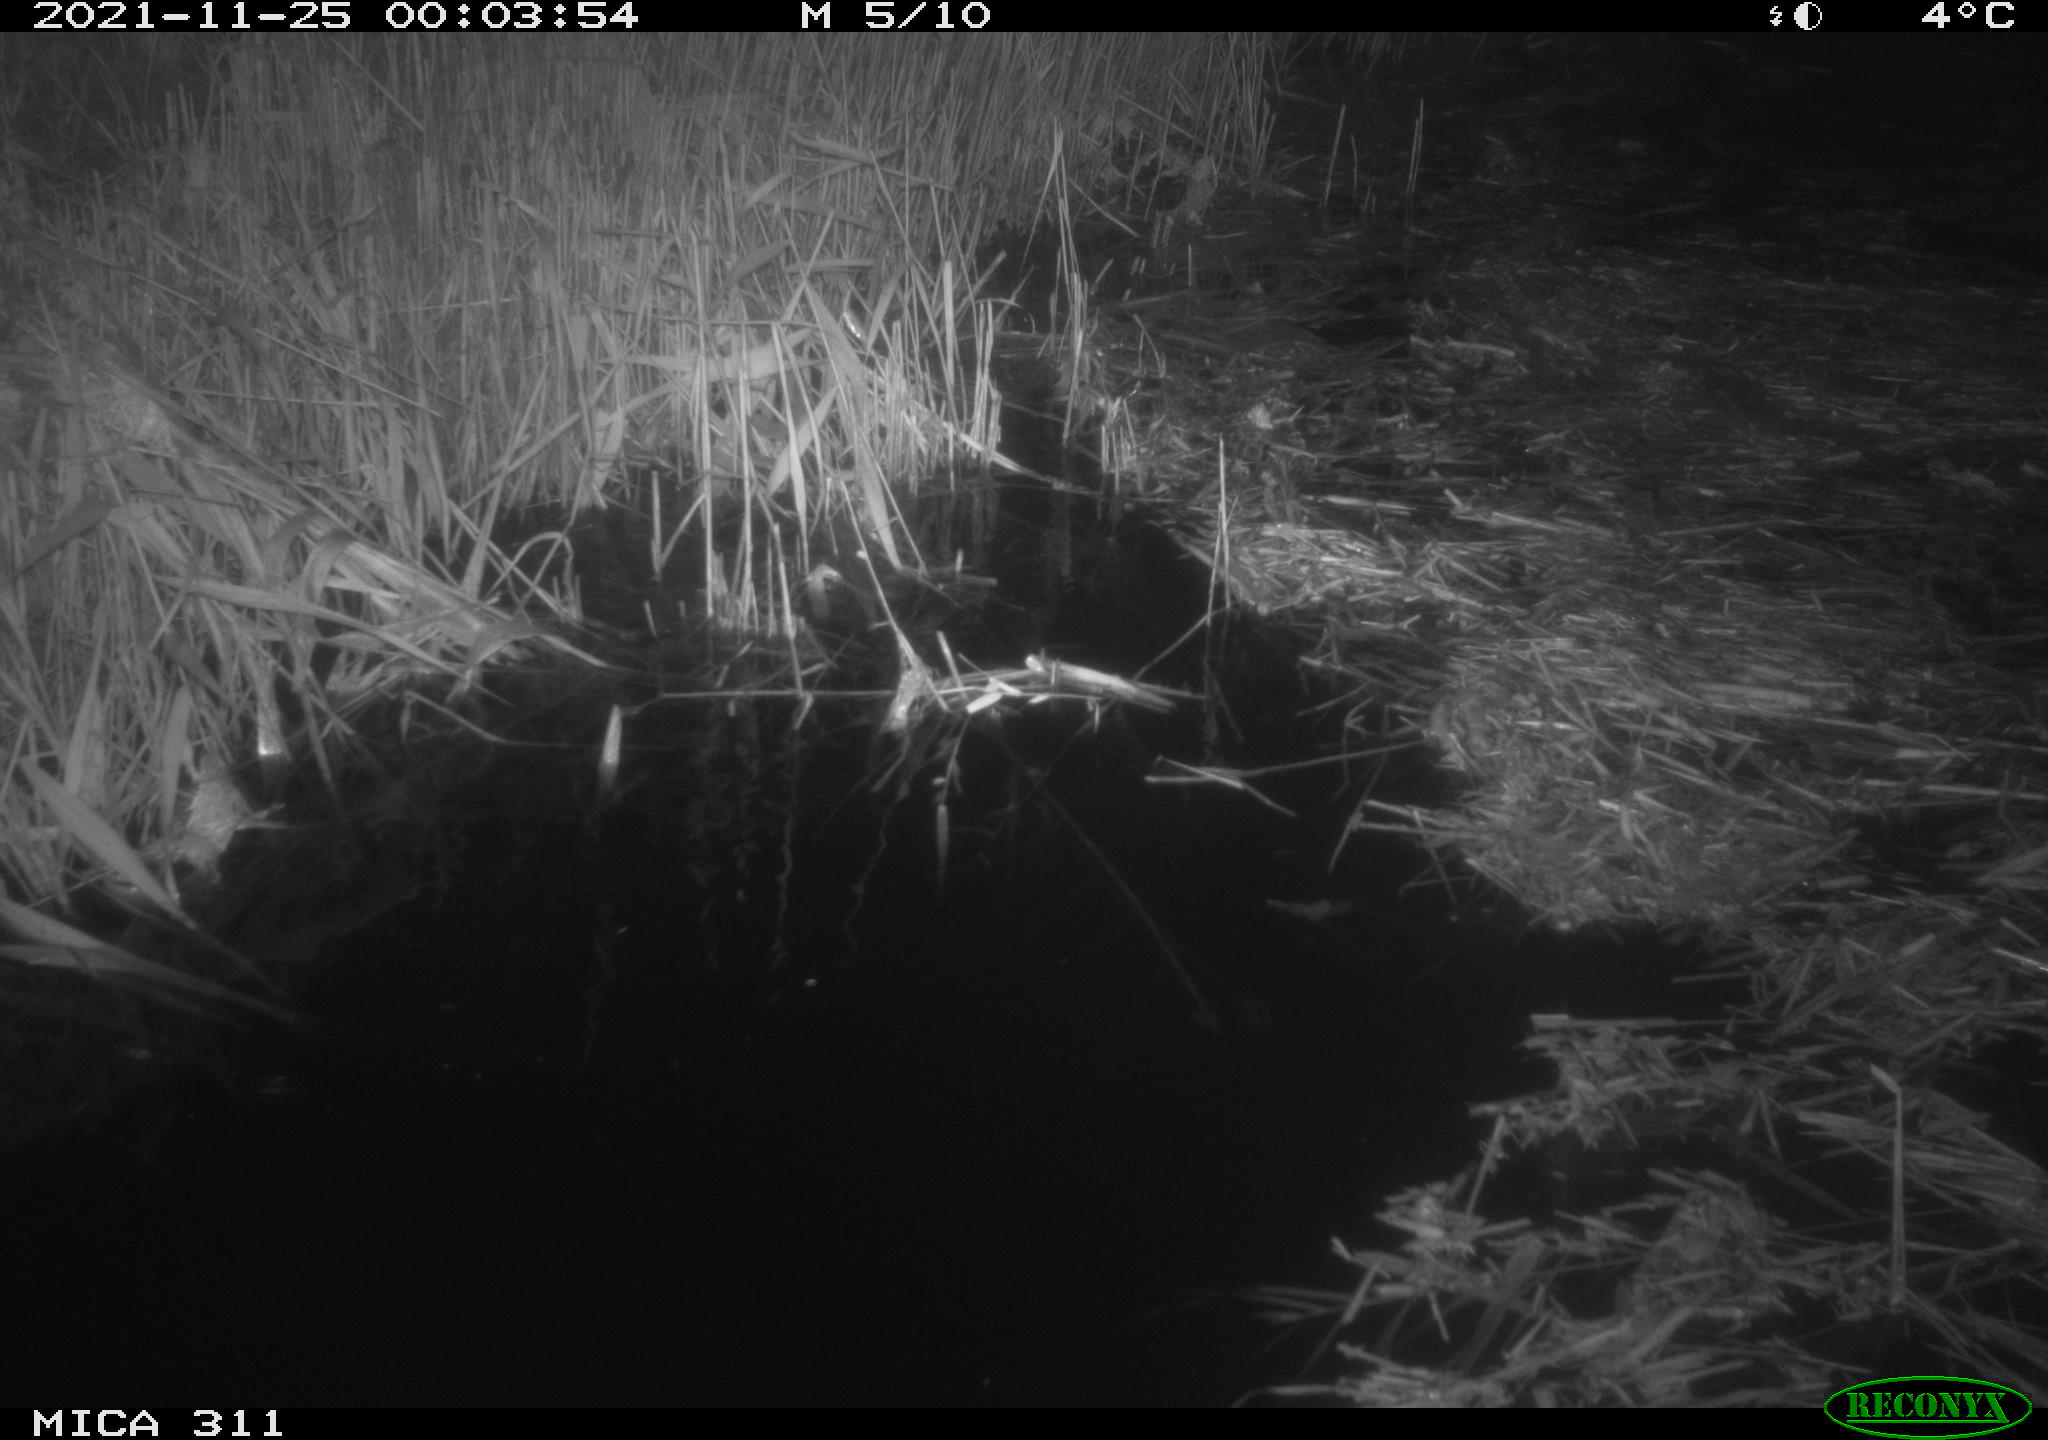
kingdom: Animalia
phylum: Chordata
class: Mammalia
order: Rodentia
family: Muridae
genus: Rattus
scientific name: Rattus norvegicus
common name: Brown rat
